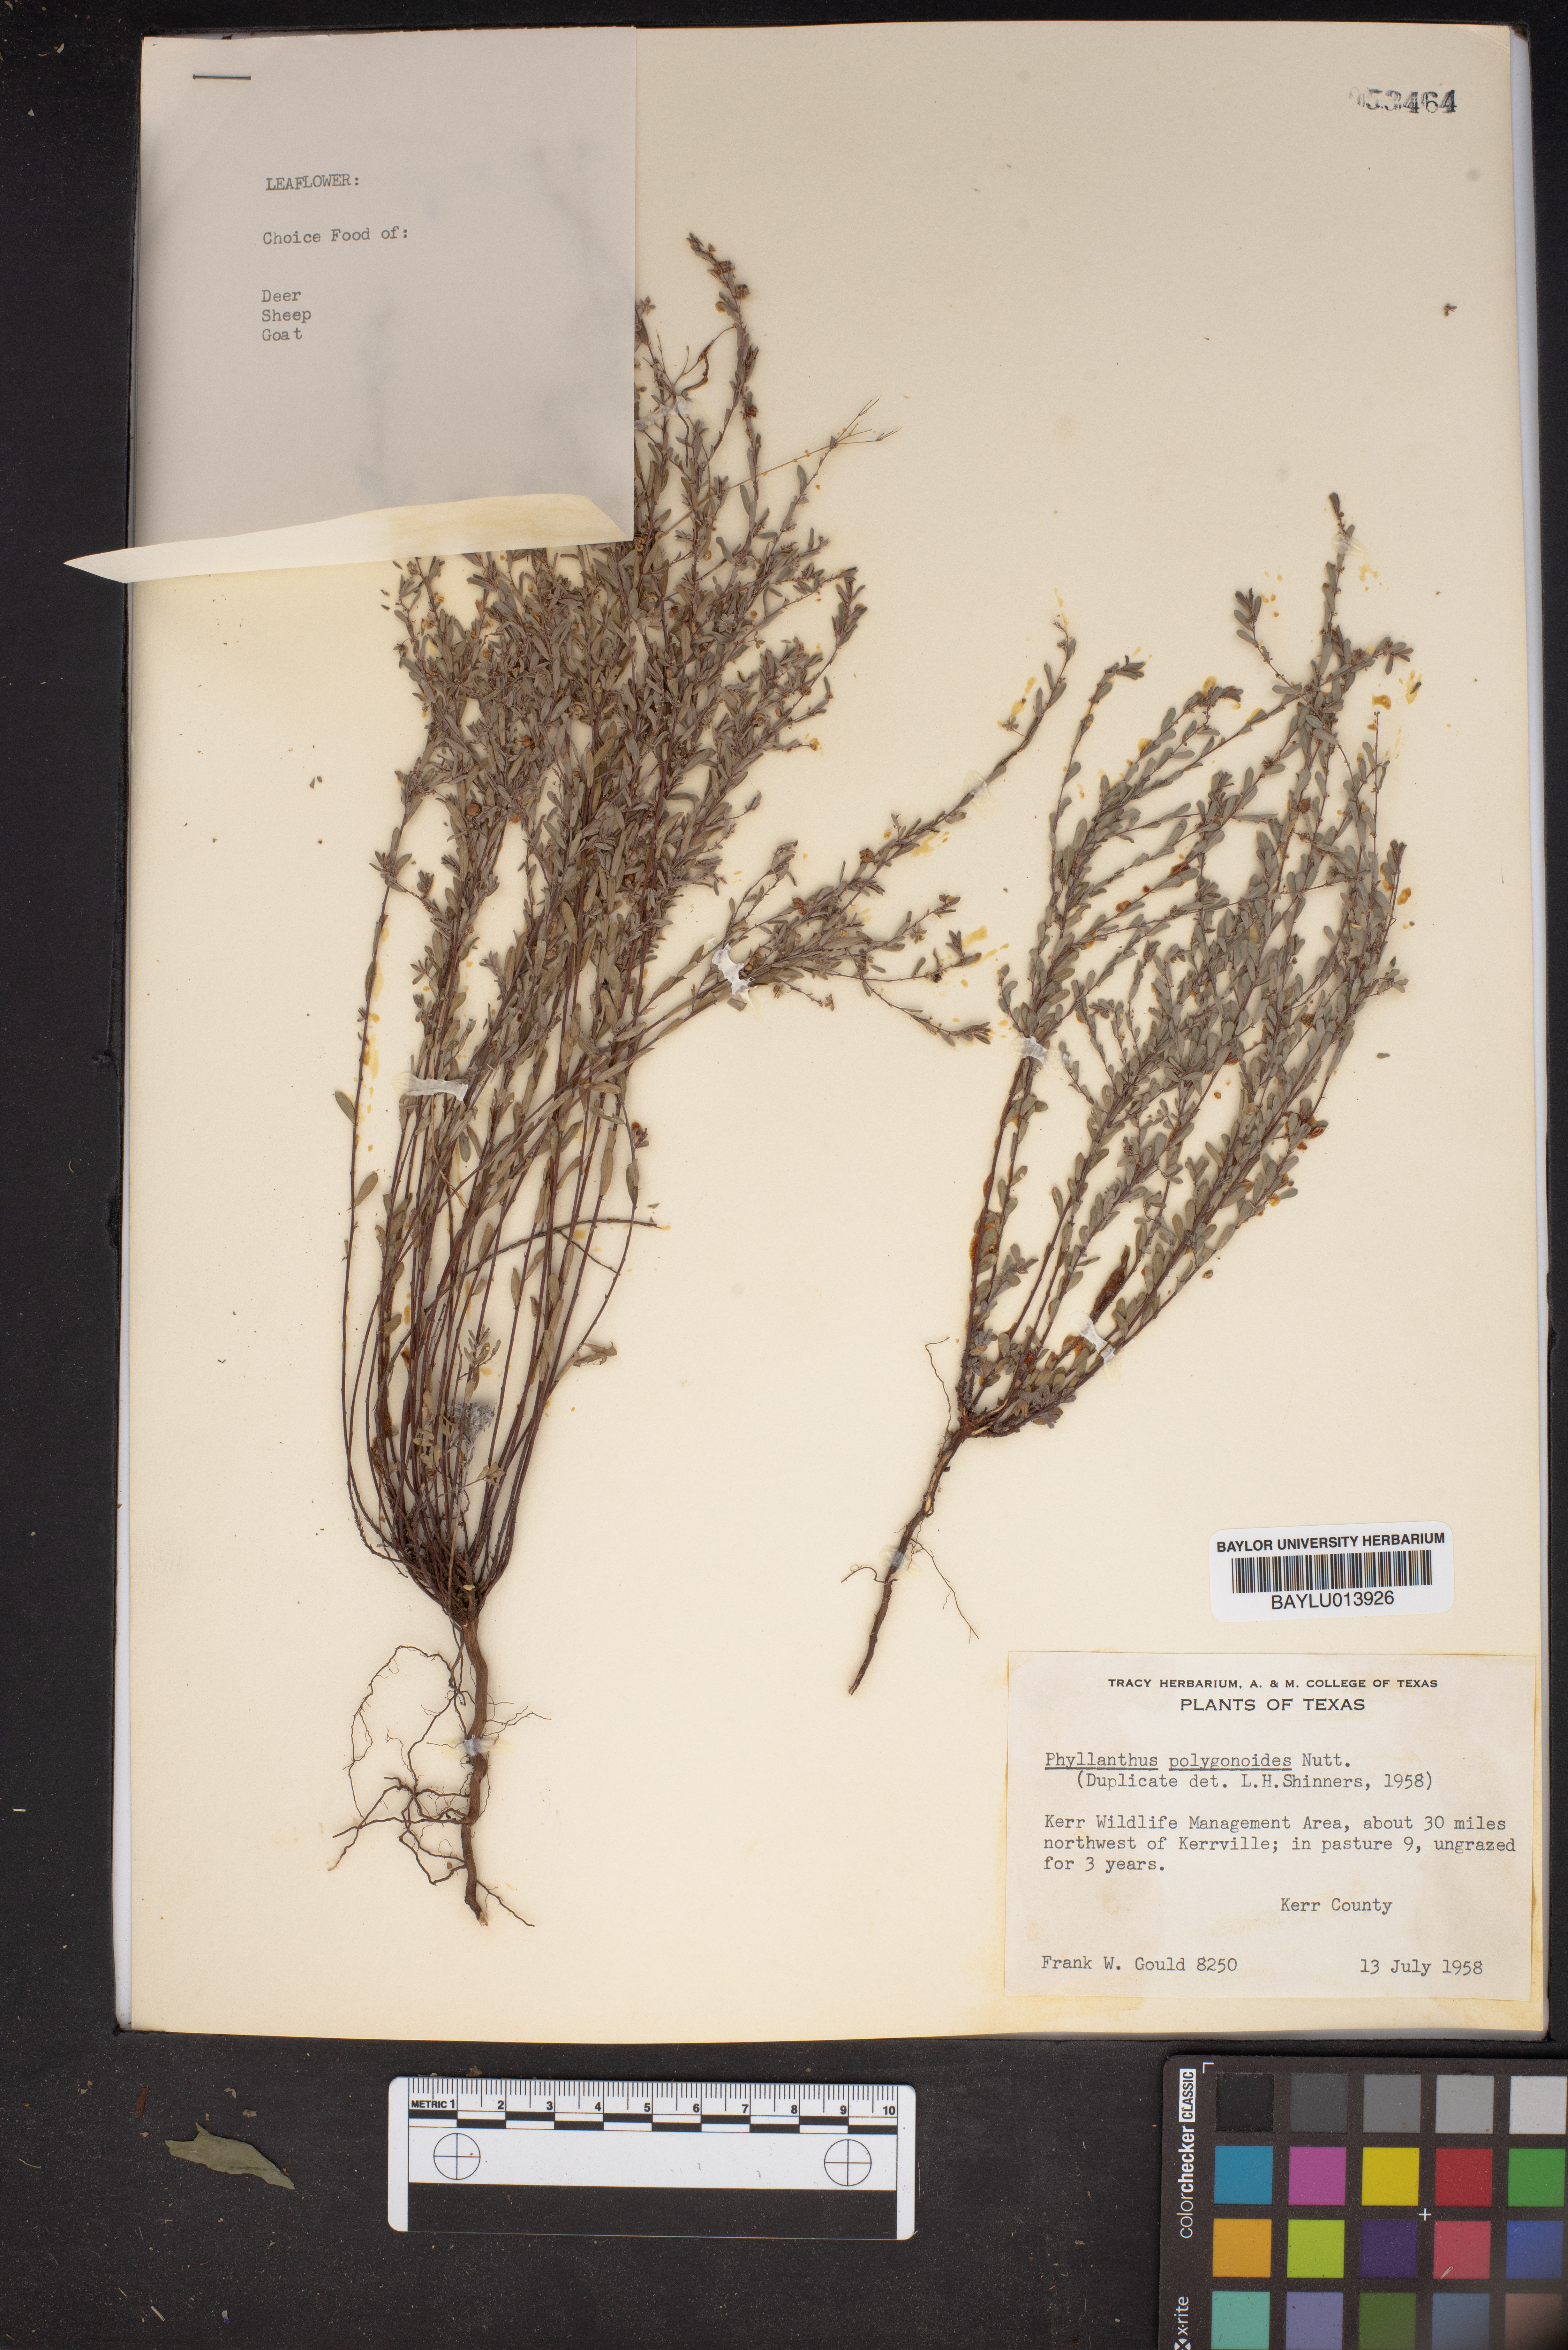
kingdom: Plantae
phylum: Tracheophyta
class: Magnoliopsida
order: Malpighiales
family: Phyllanthaceae
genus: Phyllanthus
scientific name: Phyllanthus polygonoides
